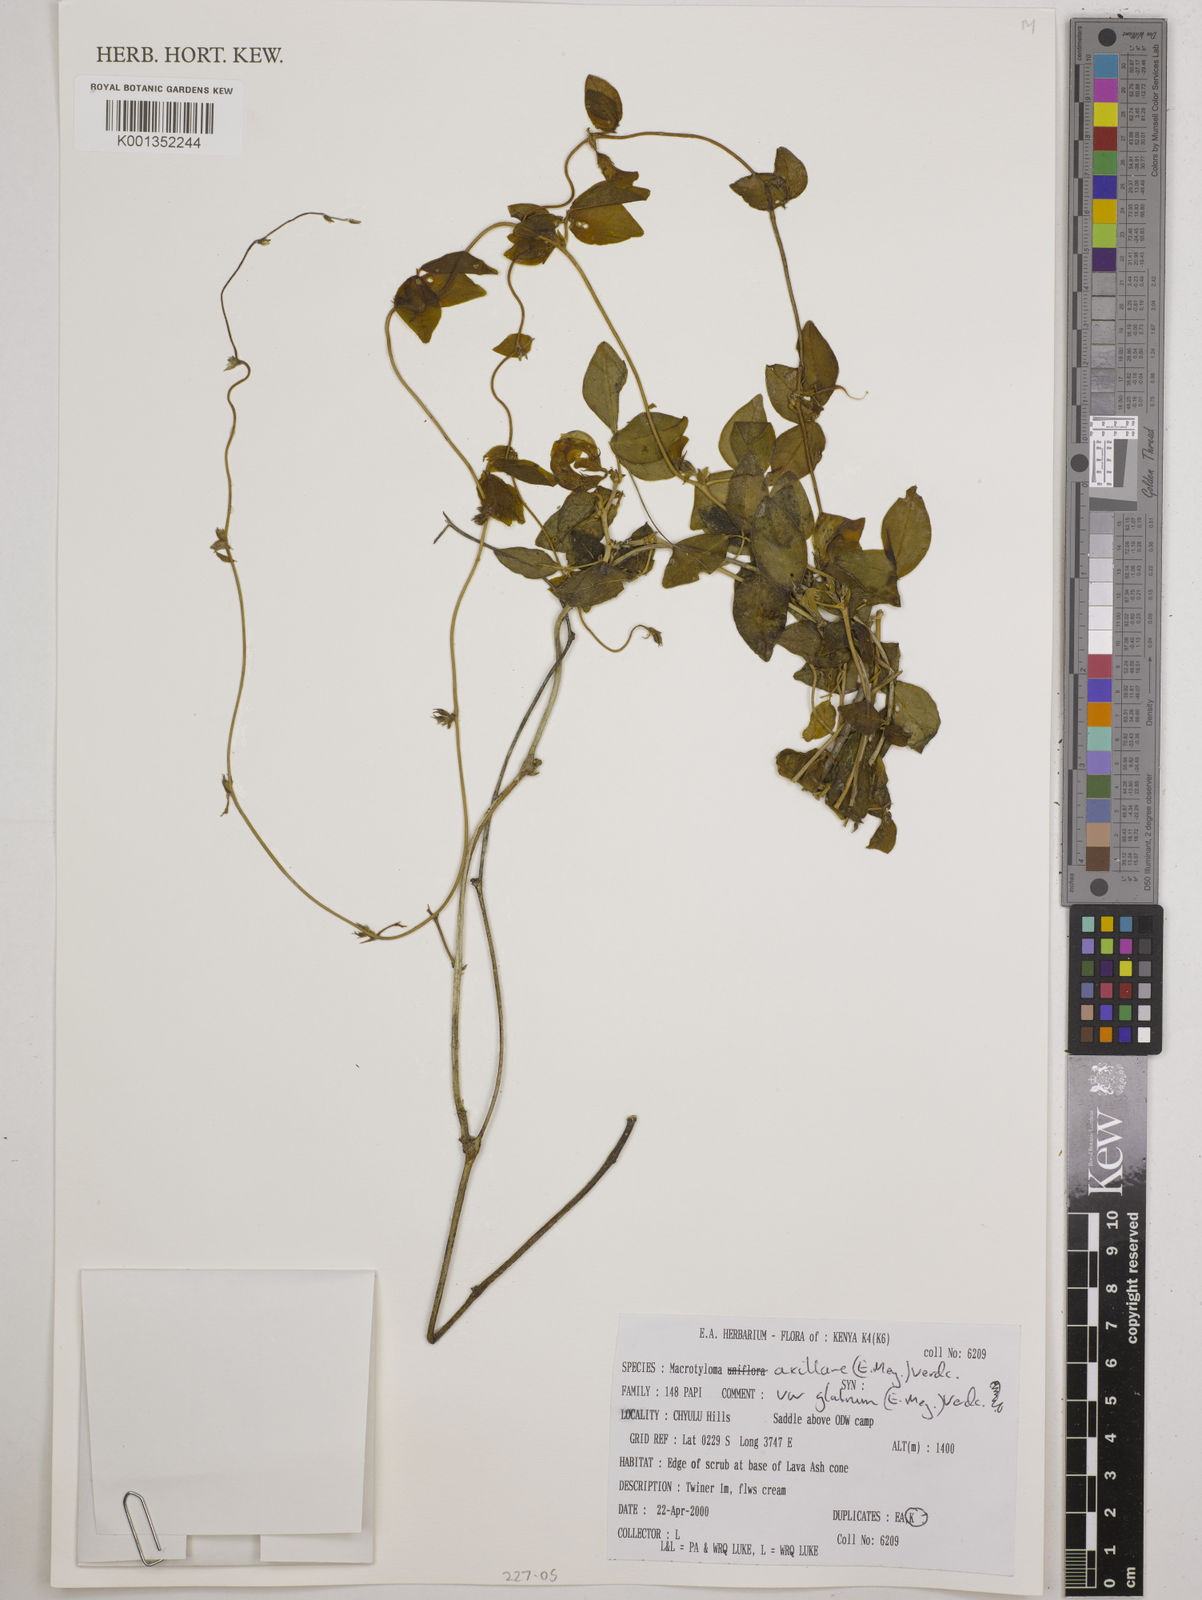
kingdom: Plantae
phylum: Tracheophyta
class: Magnoliopsida
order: Fabales
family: Fabaceae
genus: Macrotyloma
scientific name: Macrotyloma
